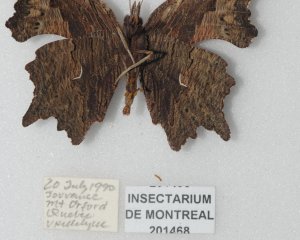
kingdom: Animalia
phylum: Arthropoda
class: Insecta
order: Lepidoptera
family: Nymphalidae
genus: Polygonia
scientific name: Polygonia progne
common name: Gray Comma
